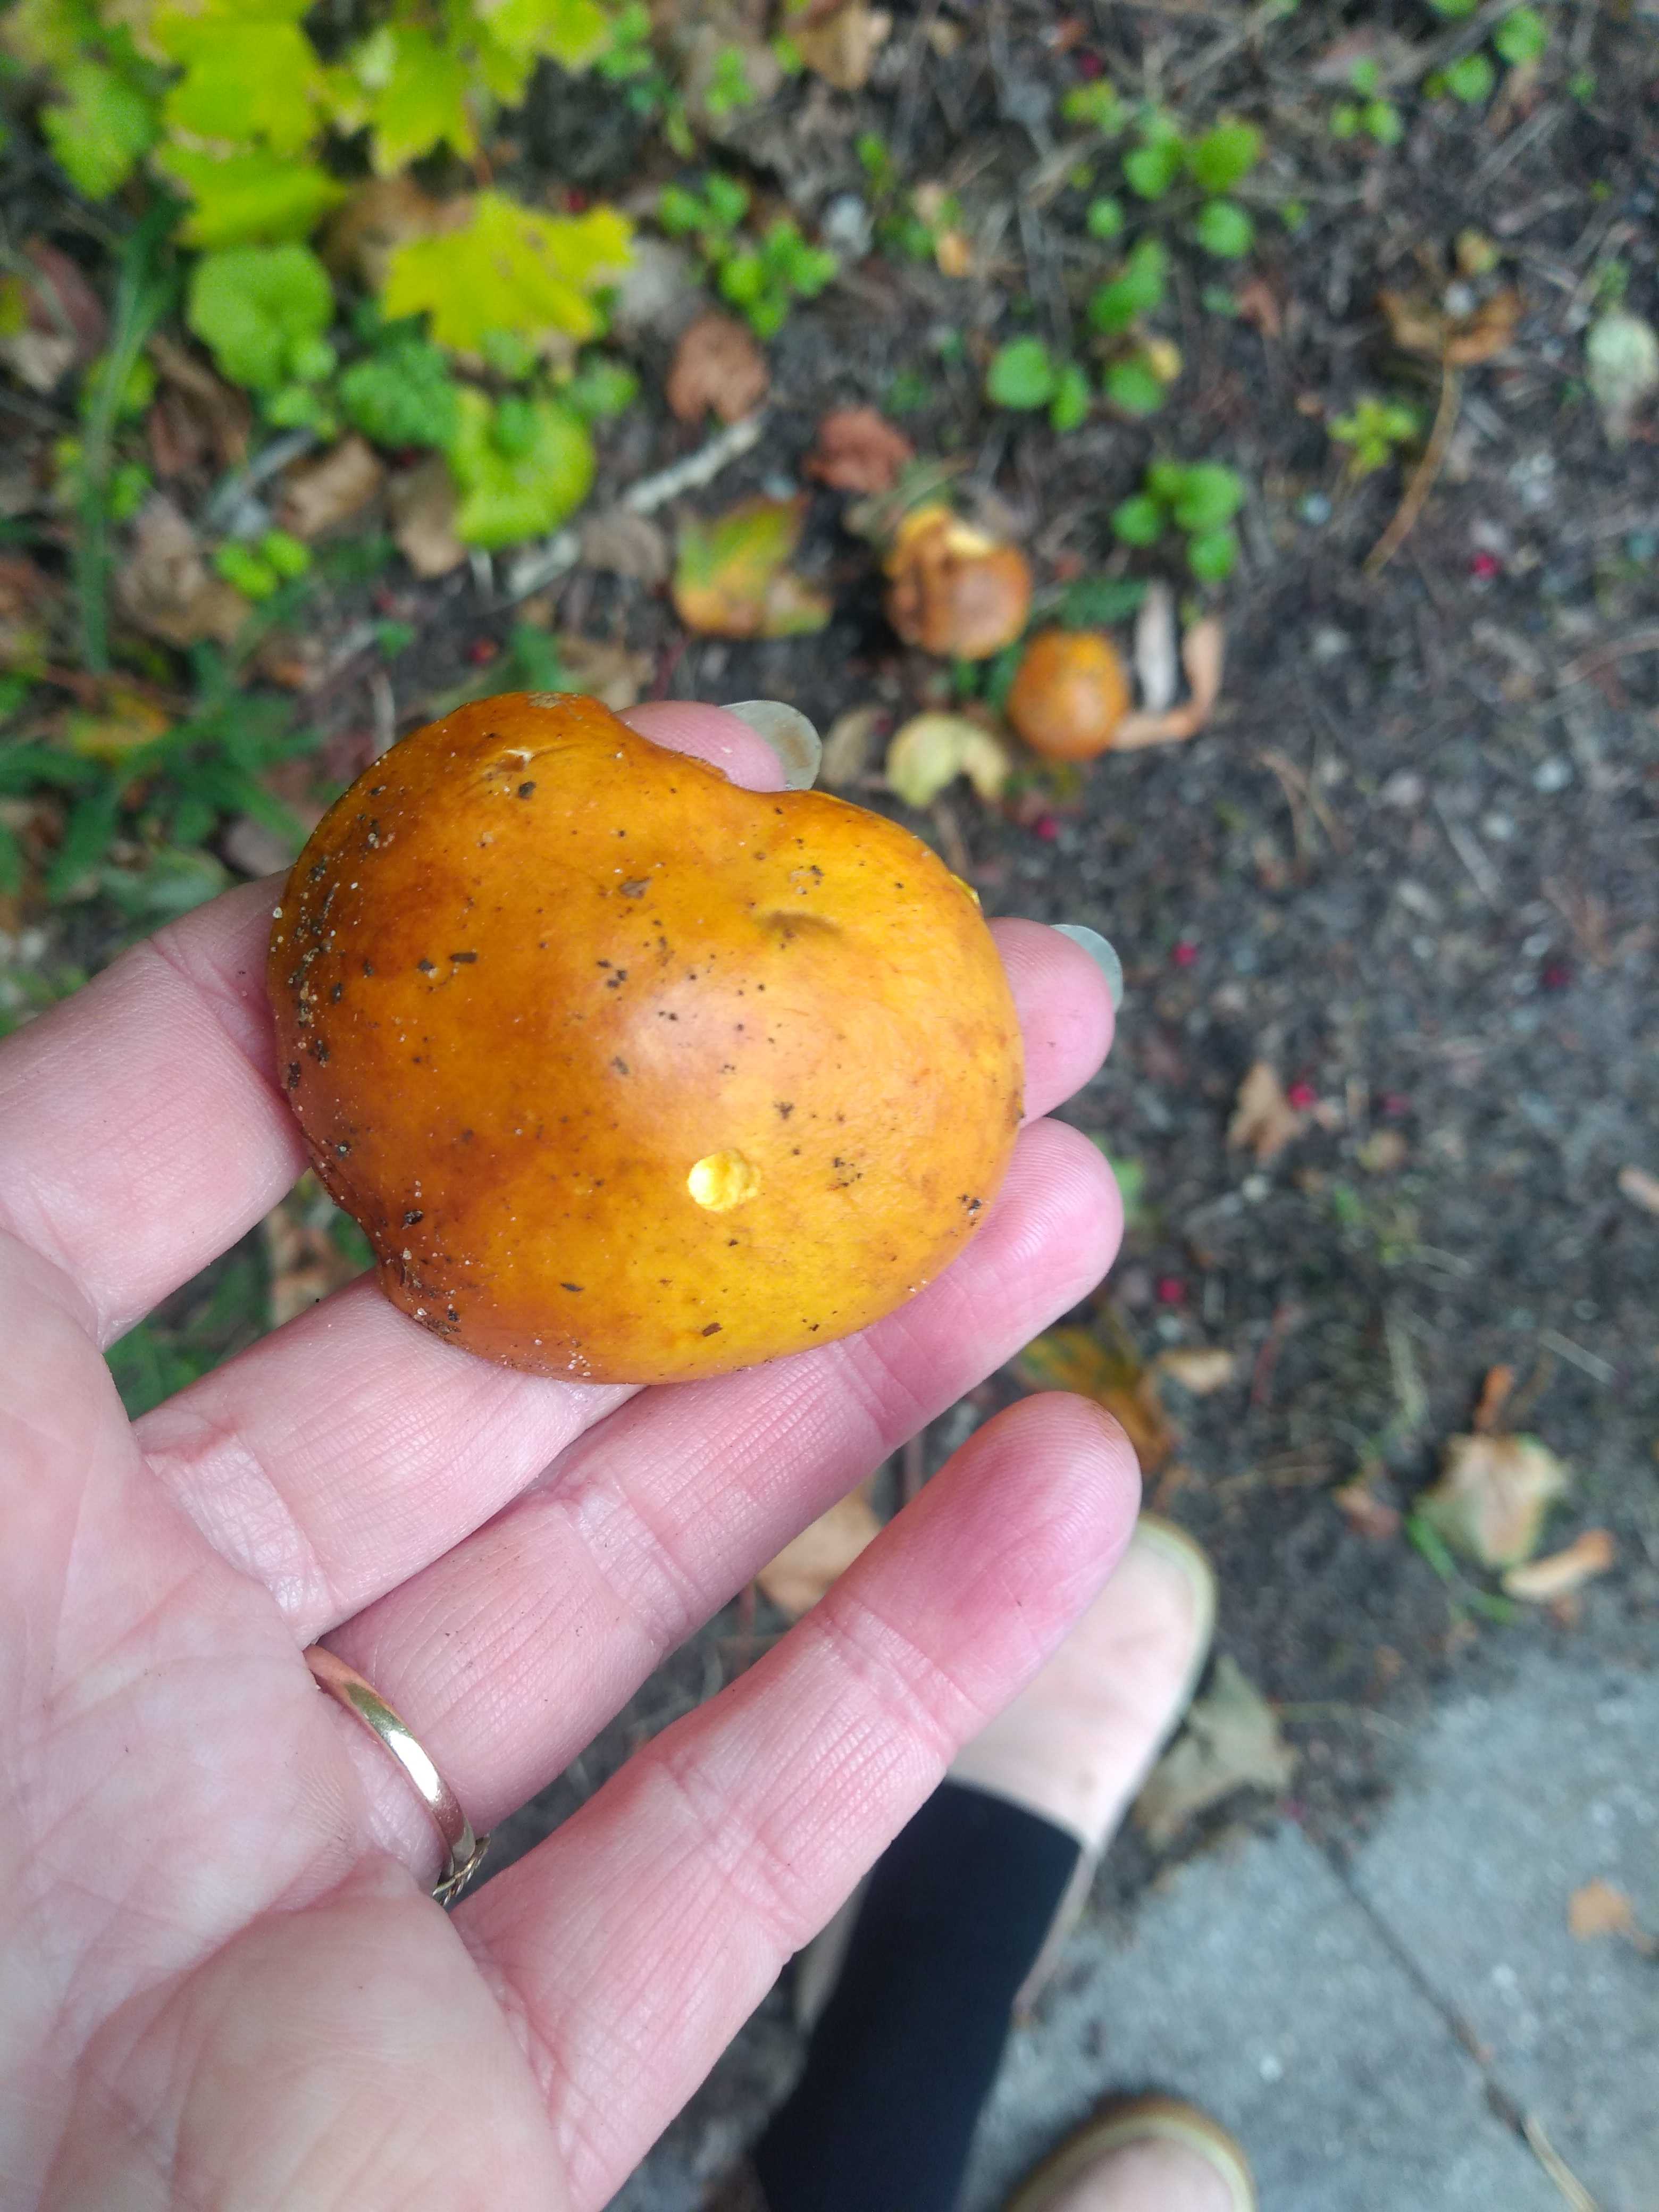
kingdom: Fungi
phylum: Basidiomycota
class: Agaricomycetes
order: Boletales
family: Suillaceae
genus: Suillus
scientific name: Suillus grevillei
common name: lærke-slimrørhat
